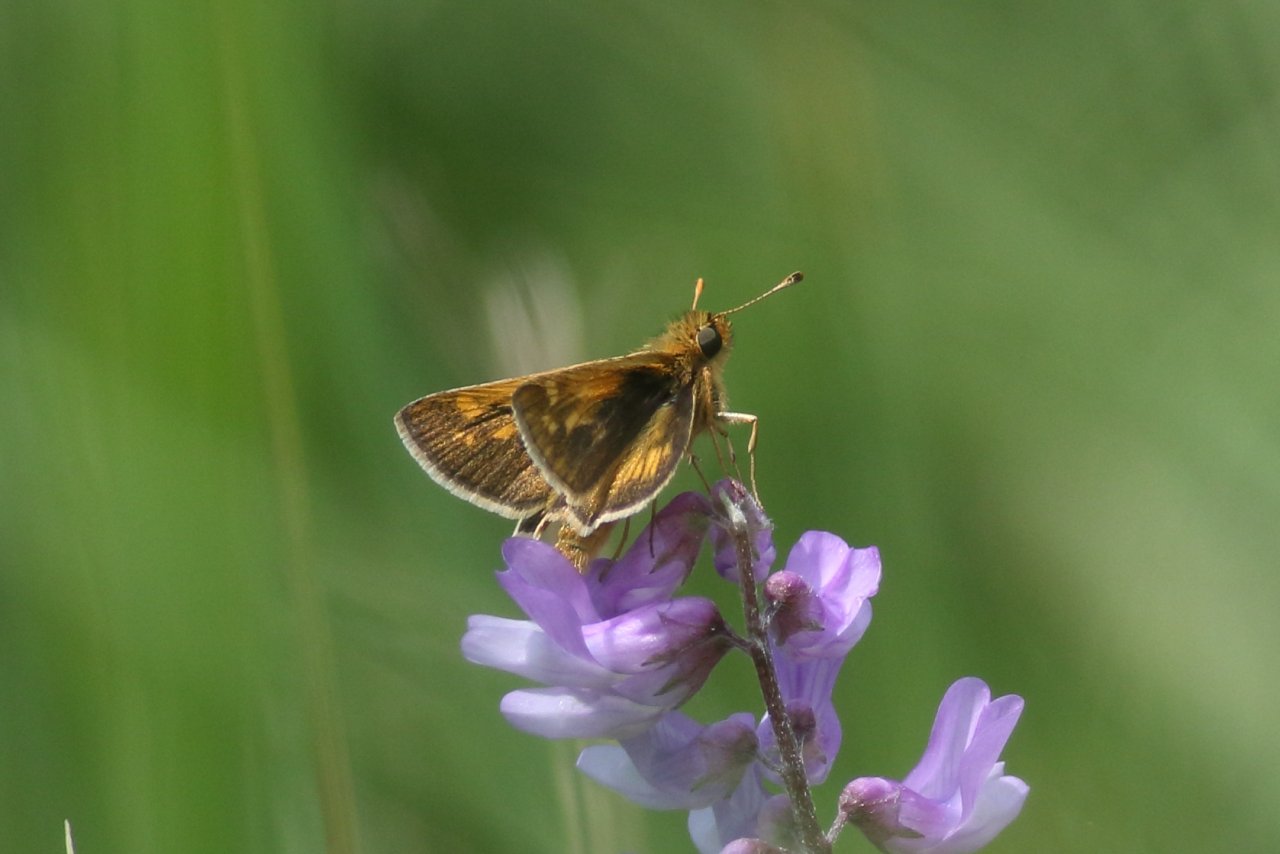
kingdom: Animalia
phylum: Arthropoda
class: Insecta
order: Lepidoptera
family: Hesperiidae
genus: Polites
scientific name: Polites coras
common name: Peck's Skipper
